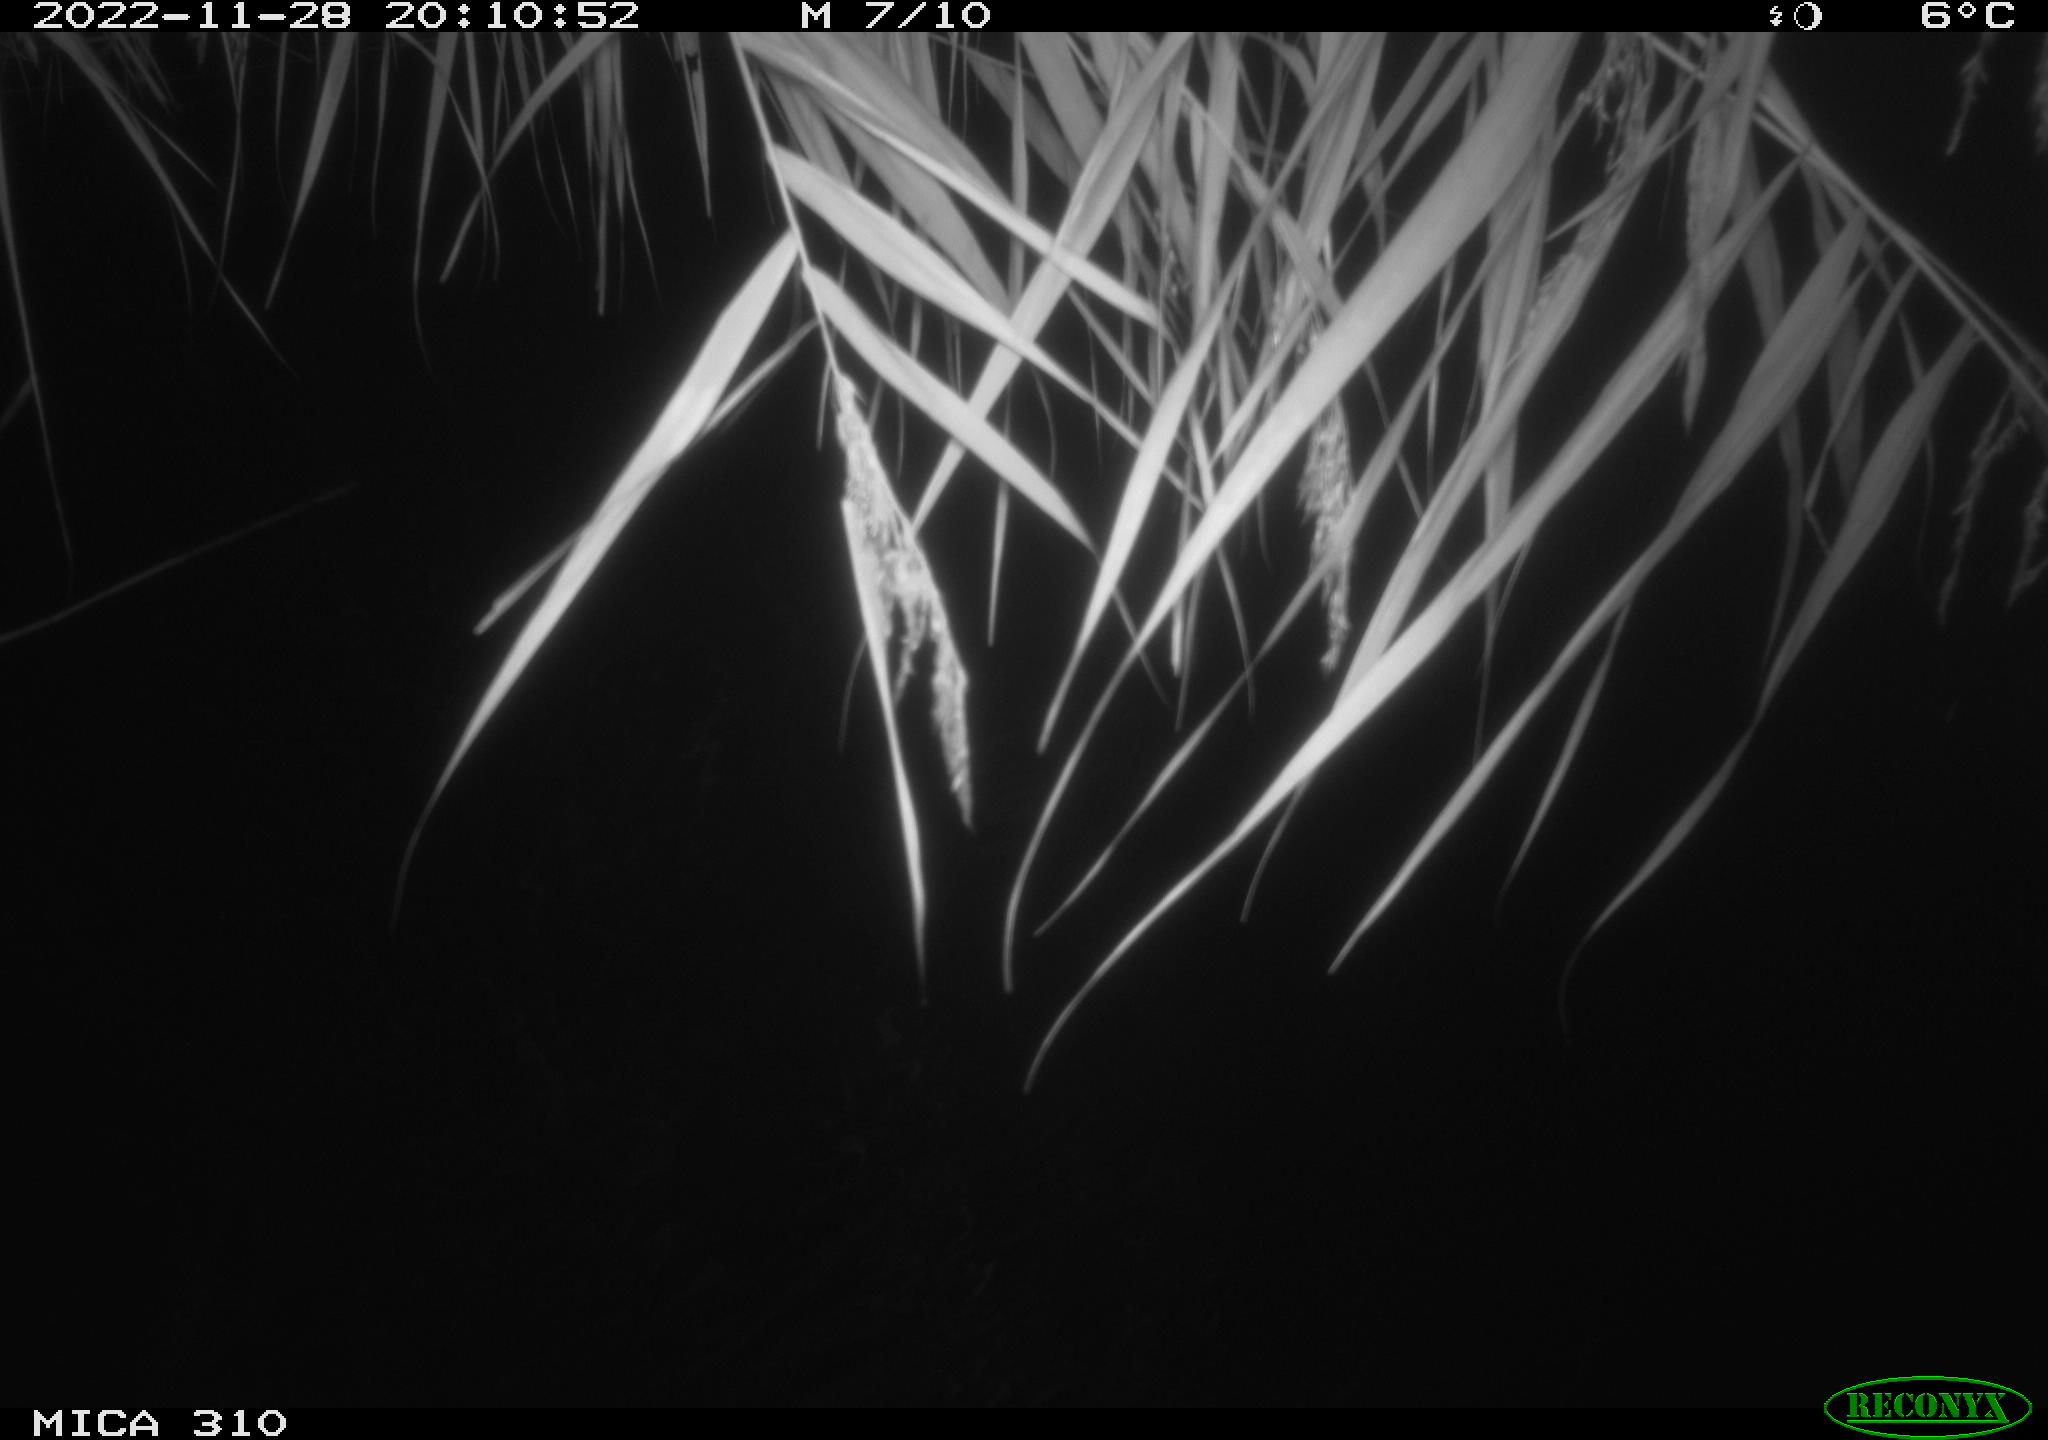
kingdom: Animalia
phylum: Chordata
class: Mammalia
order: Rodentia
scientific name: Rodentia
